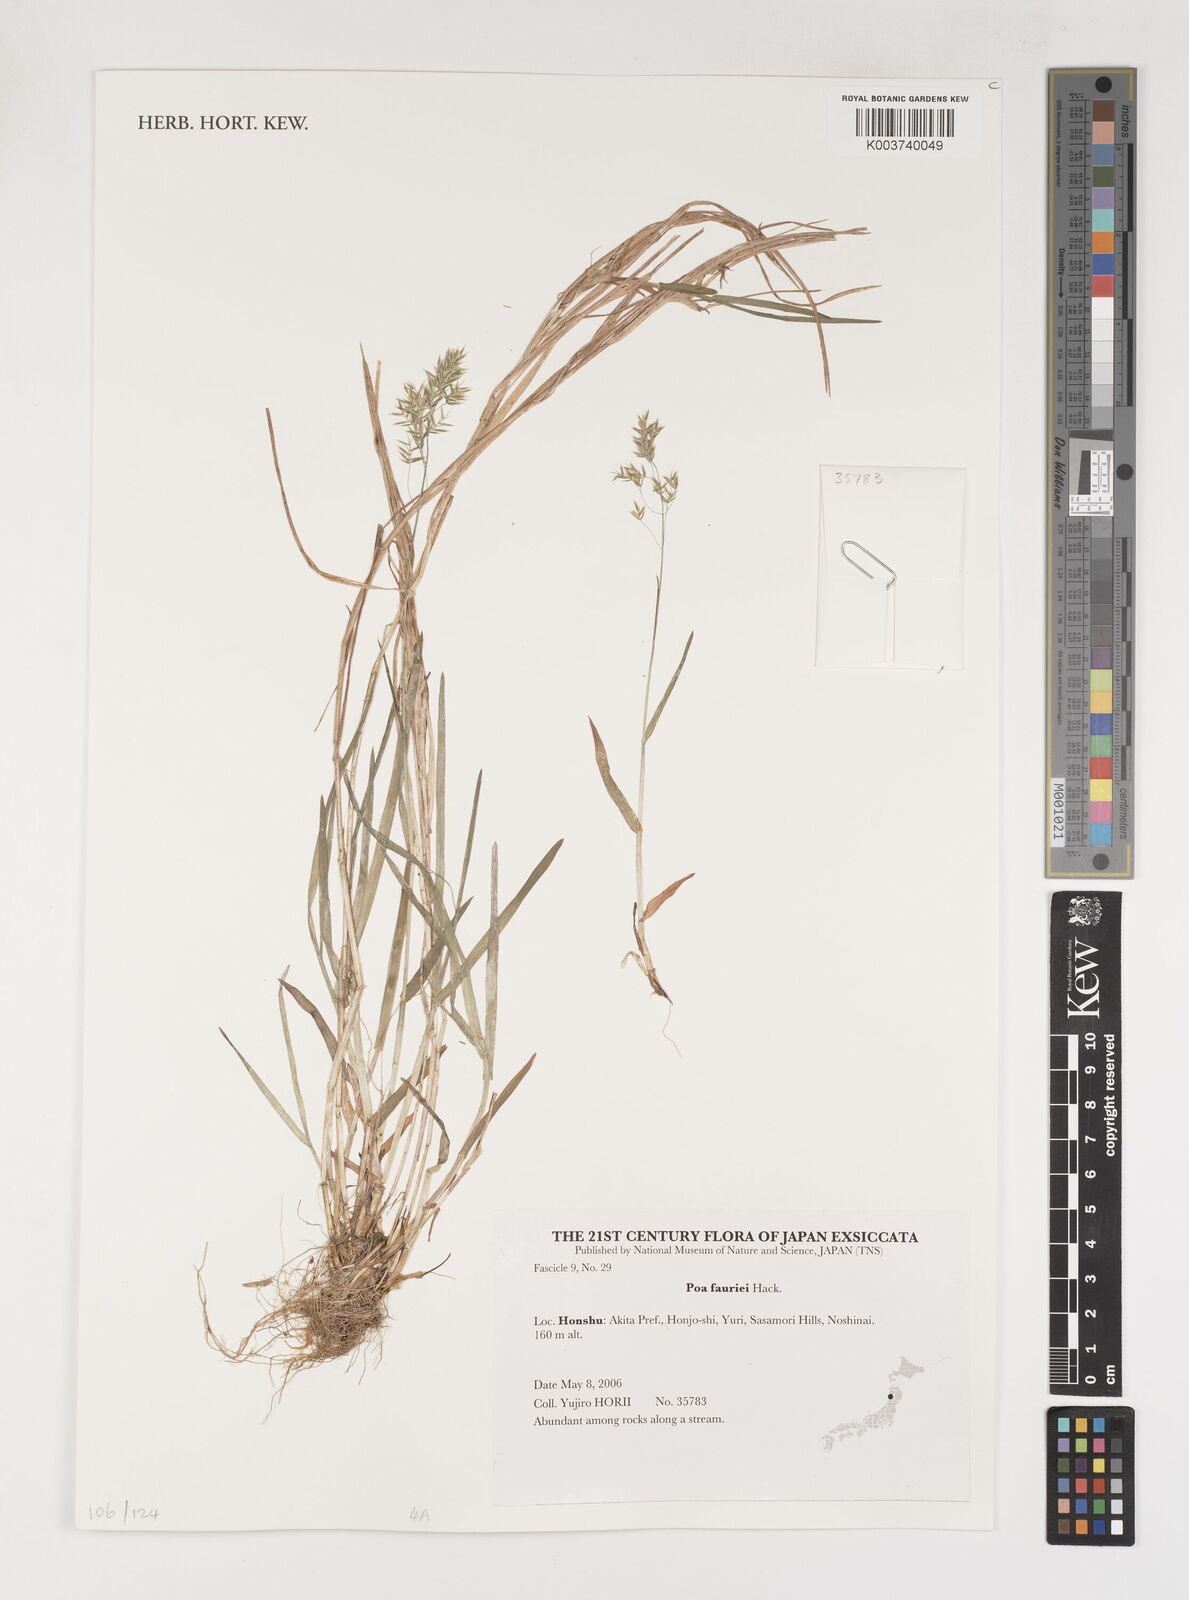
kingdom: Plantae
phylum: Tracheophyta
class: Liliopsida
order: Poales
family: Poaceae
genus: Poa
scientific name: Poa fauriei
